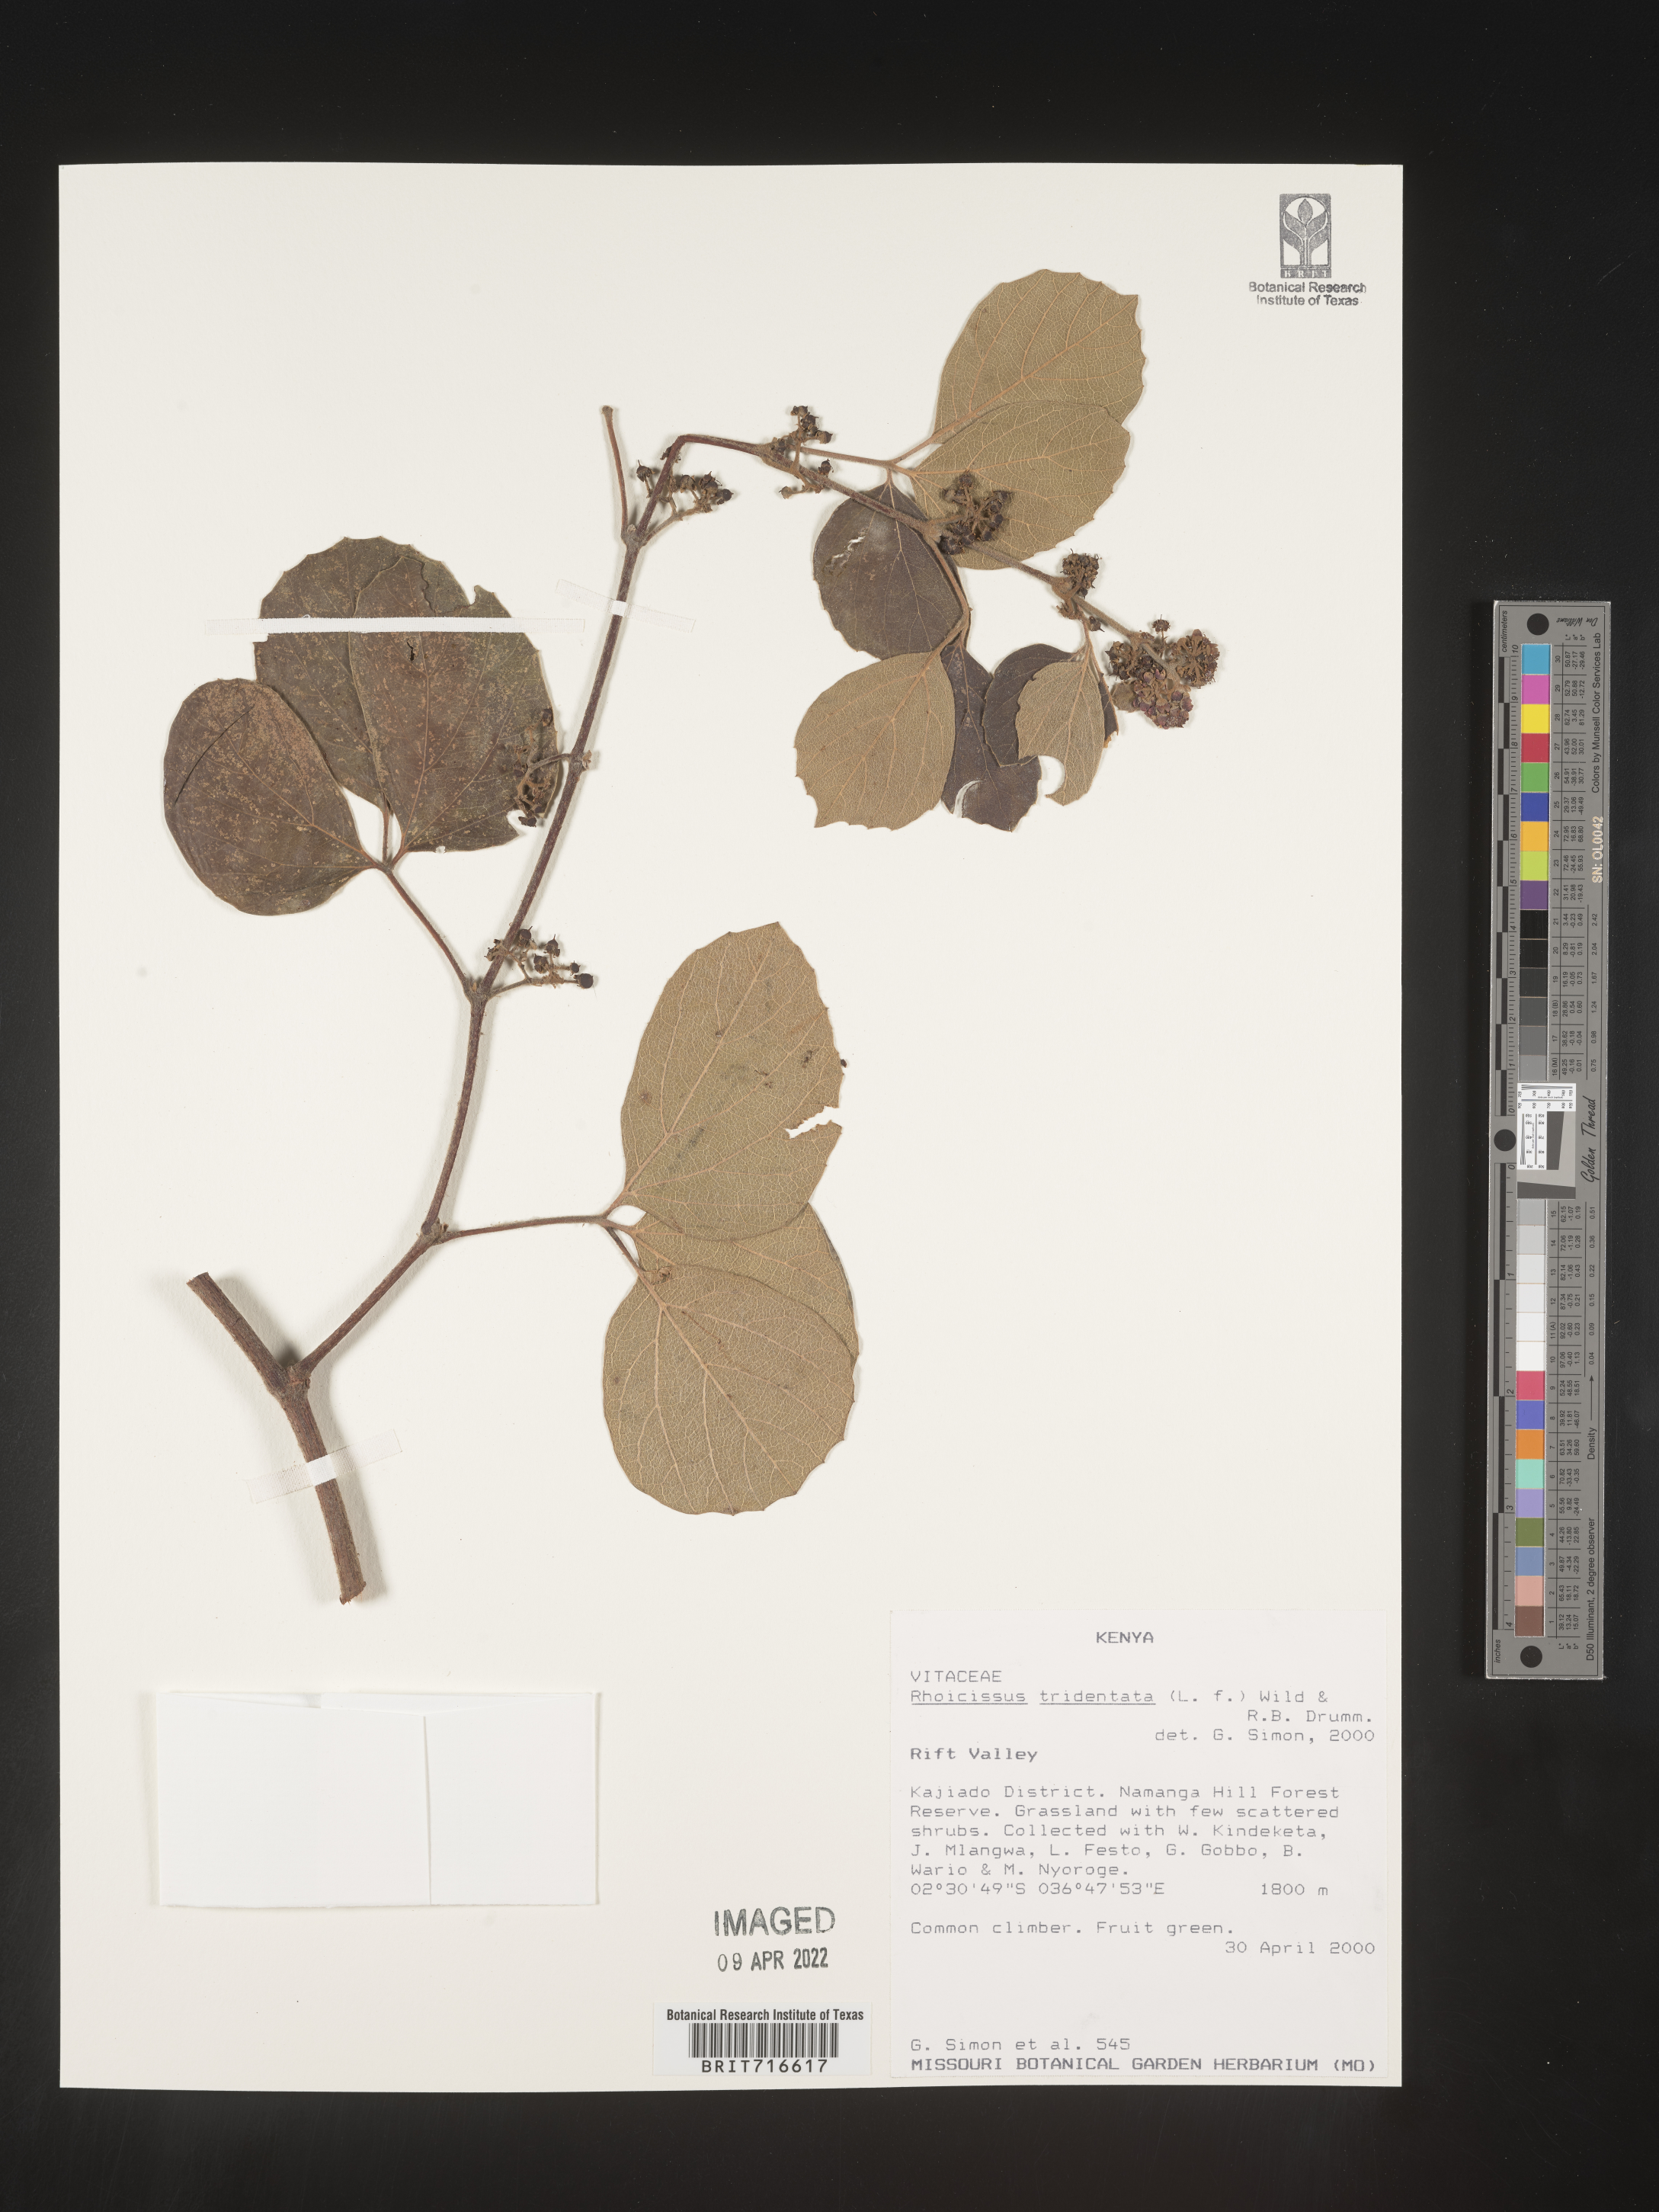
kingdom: Plantae
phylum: Tracheophyta
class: Magnoliopsida
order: Vitales
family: Vitaceae
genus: Rhoicissus
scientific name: Rhoicissus tridentata
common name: Common forest grape
